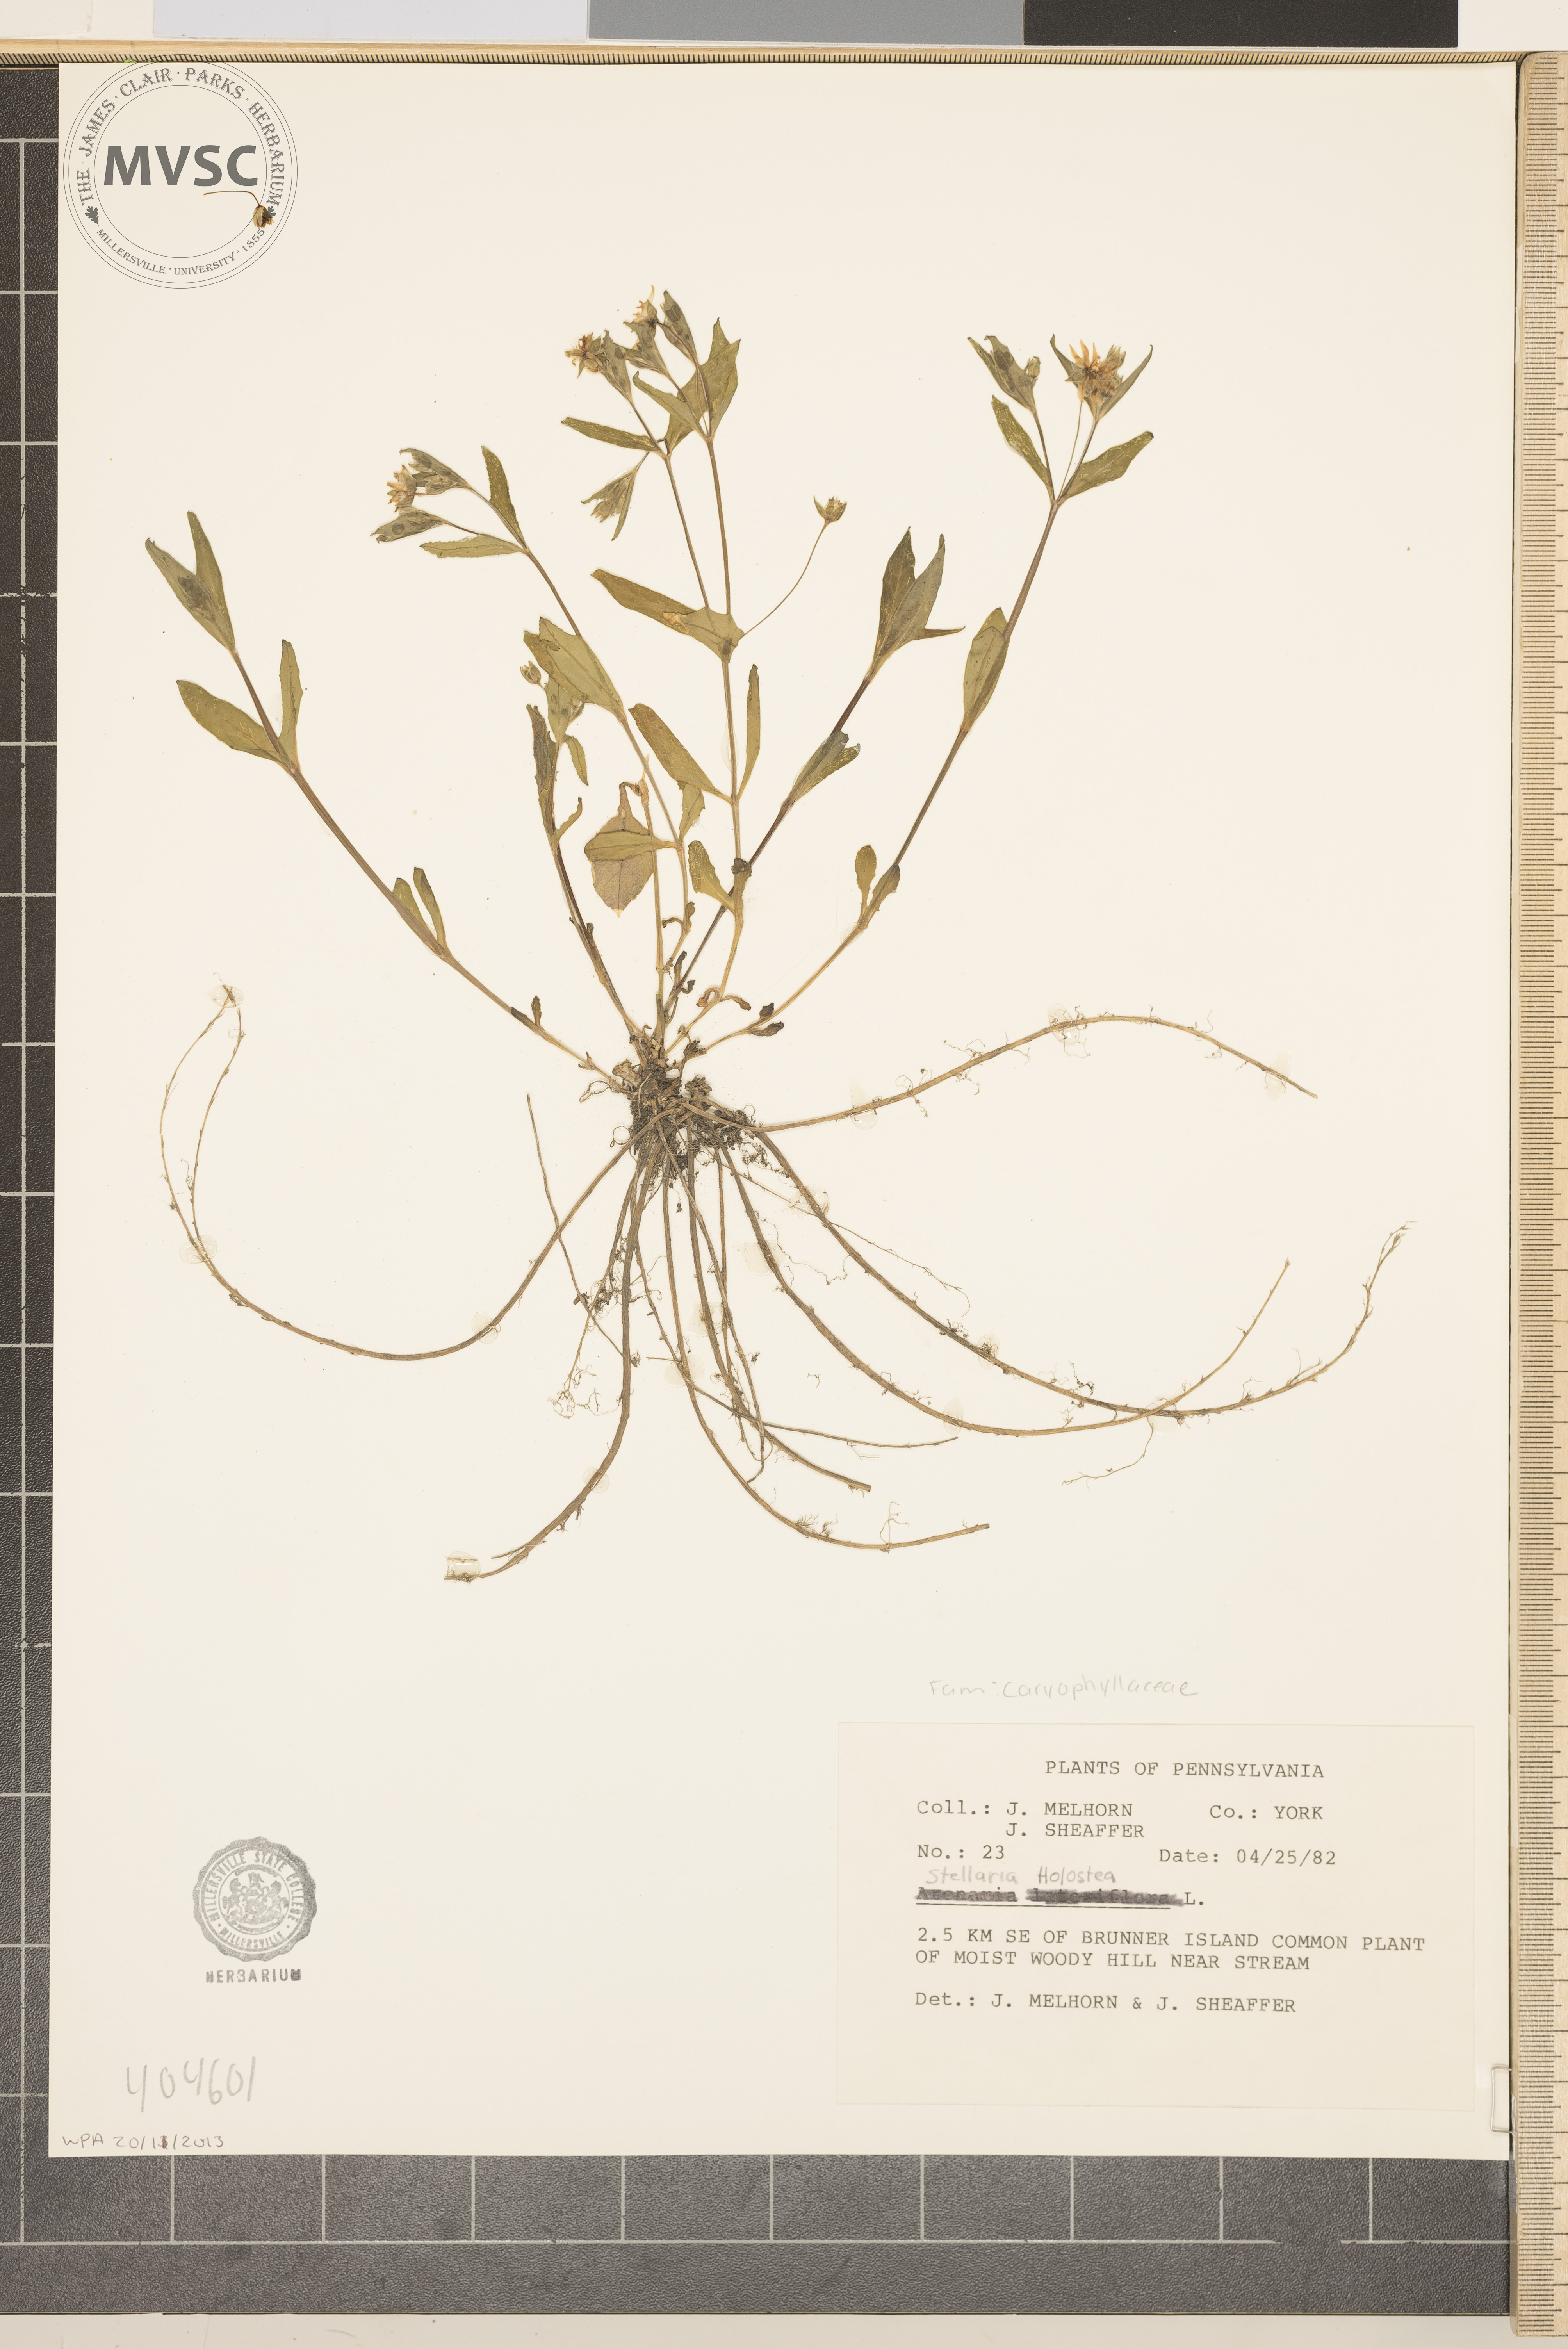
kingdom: Plantae
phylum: Tracheophyta
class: Magnoliopsida
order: Caryophyllales
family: Caryophyllaceae
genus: Stellaria
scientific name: Stellaria pubera
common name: Star chickweed
